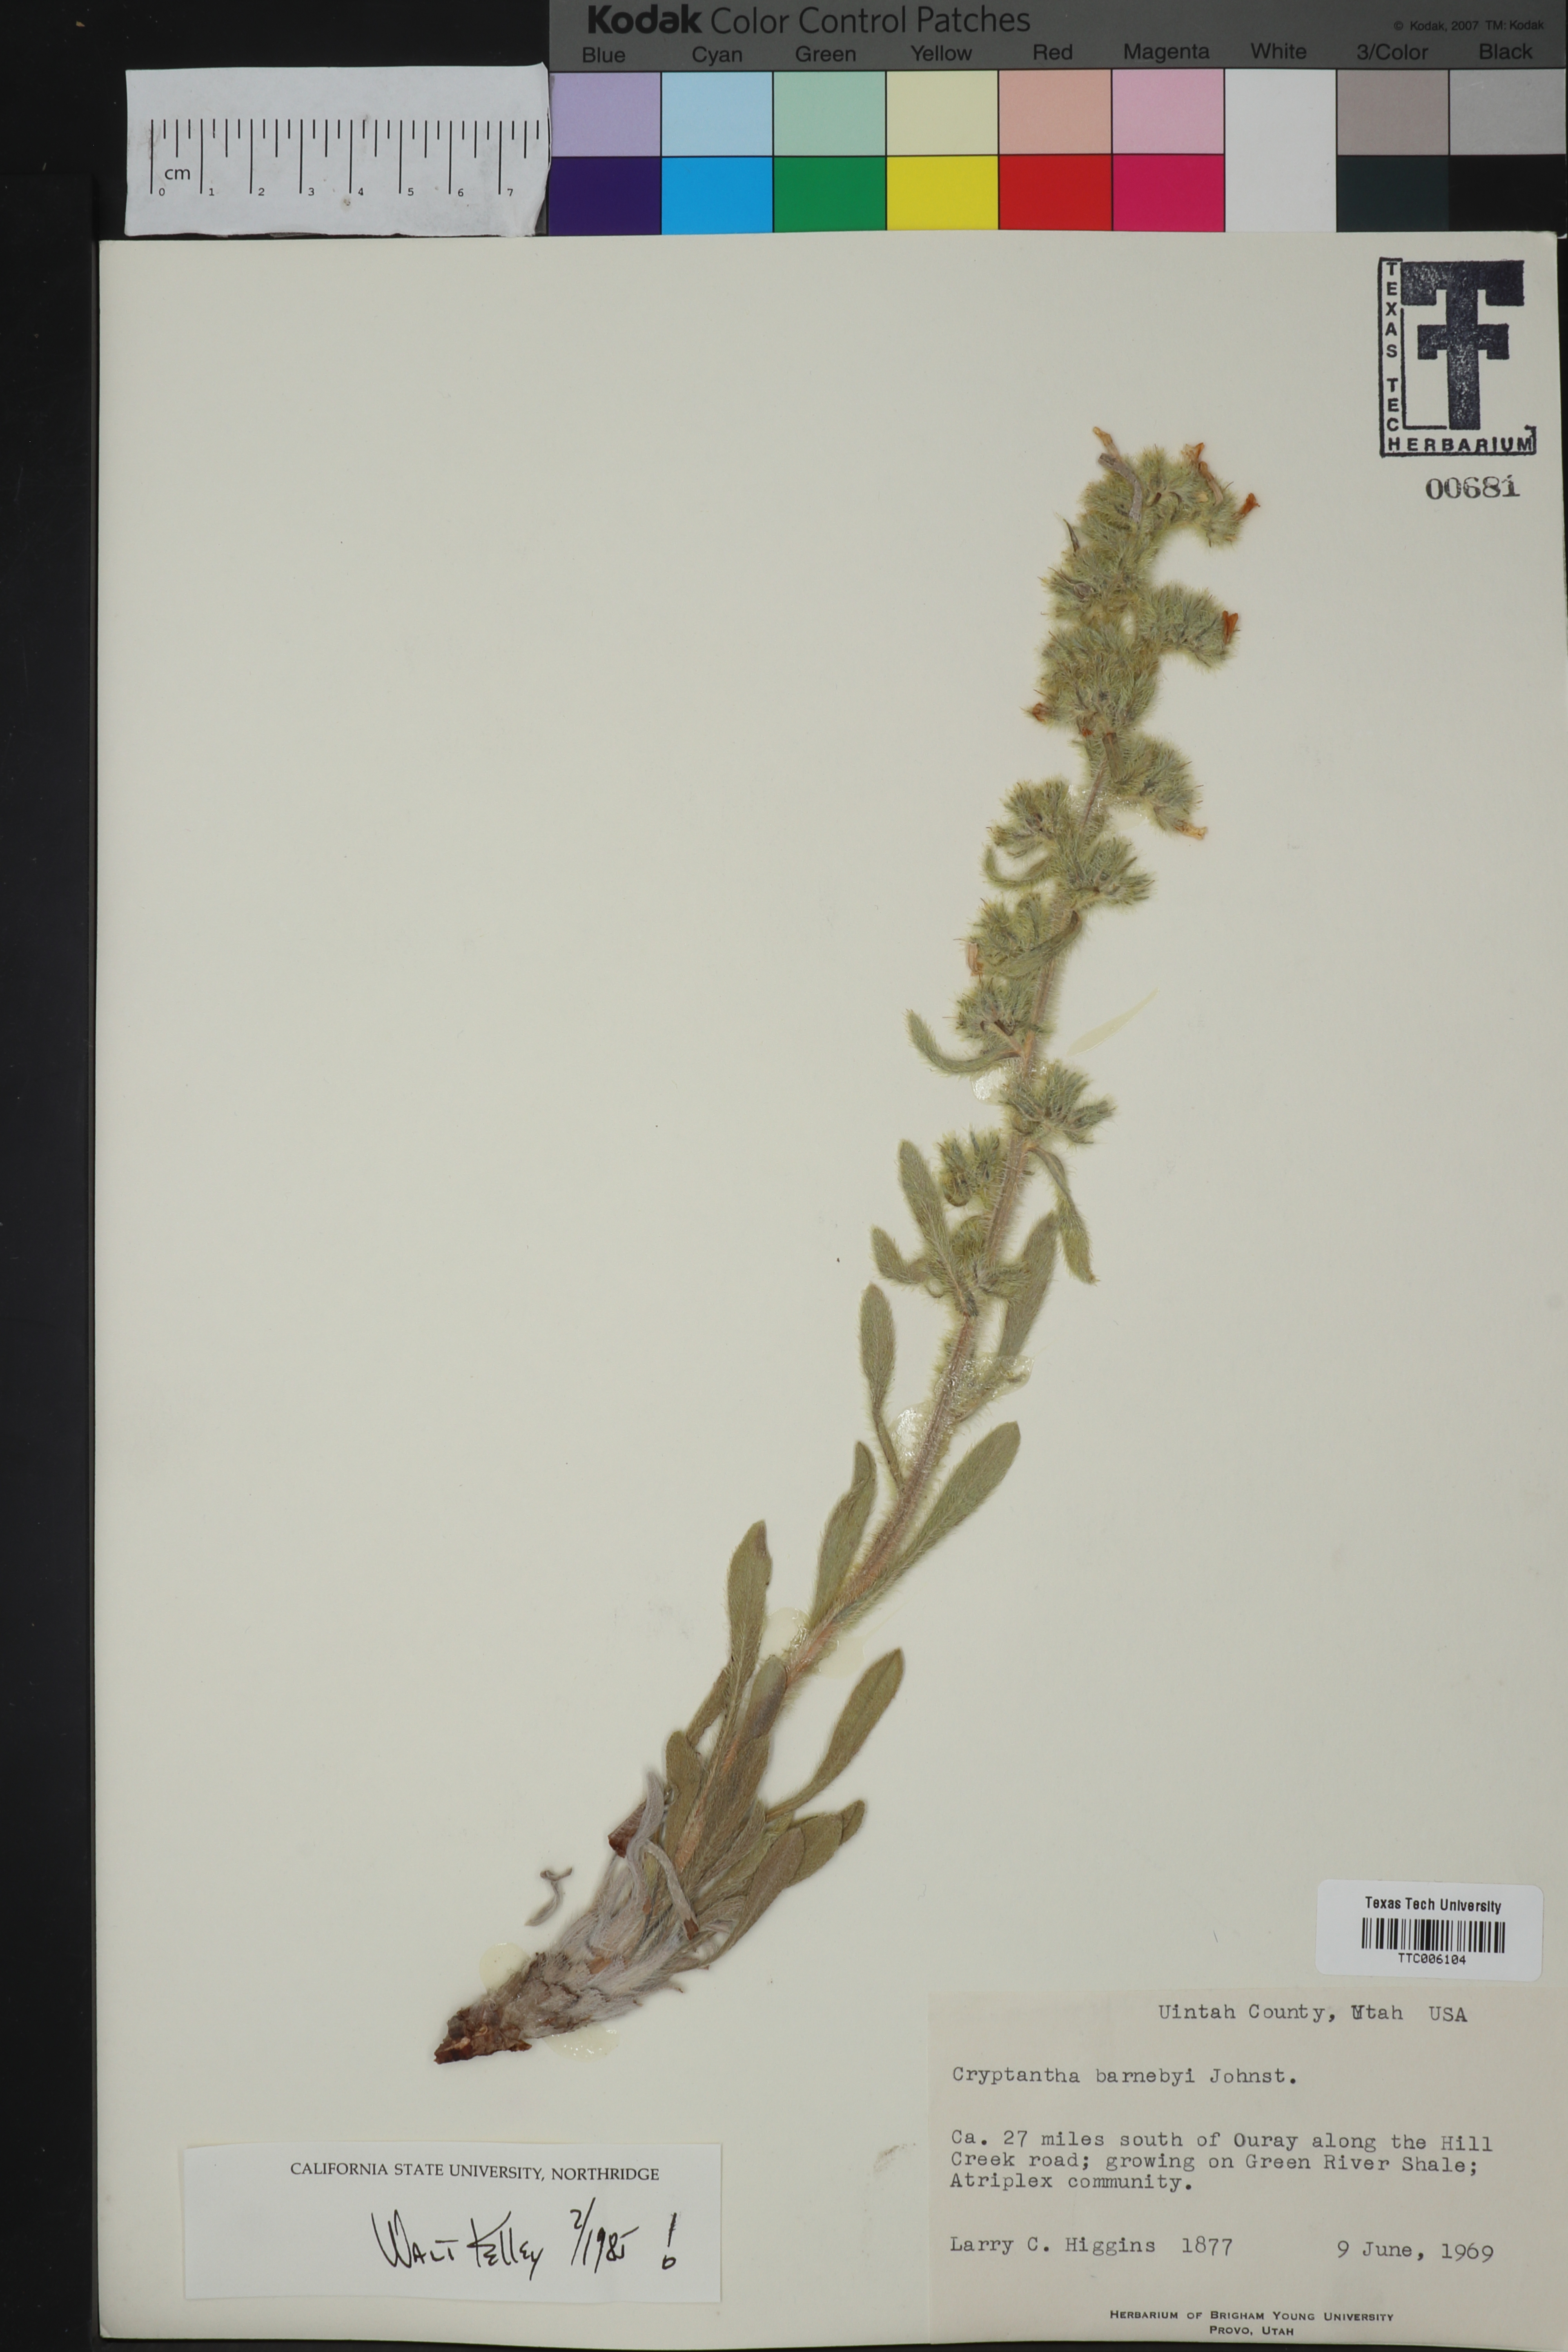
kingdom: Plantae
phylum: Tracheophyta
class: Magnoliopsida
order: Boraginales
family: Boraginaceae
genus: Oreocarya
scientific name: Oreocarya barnebyi
